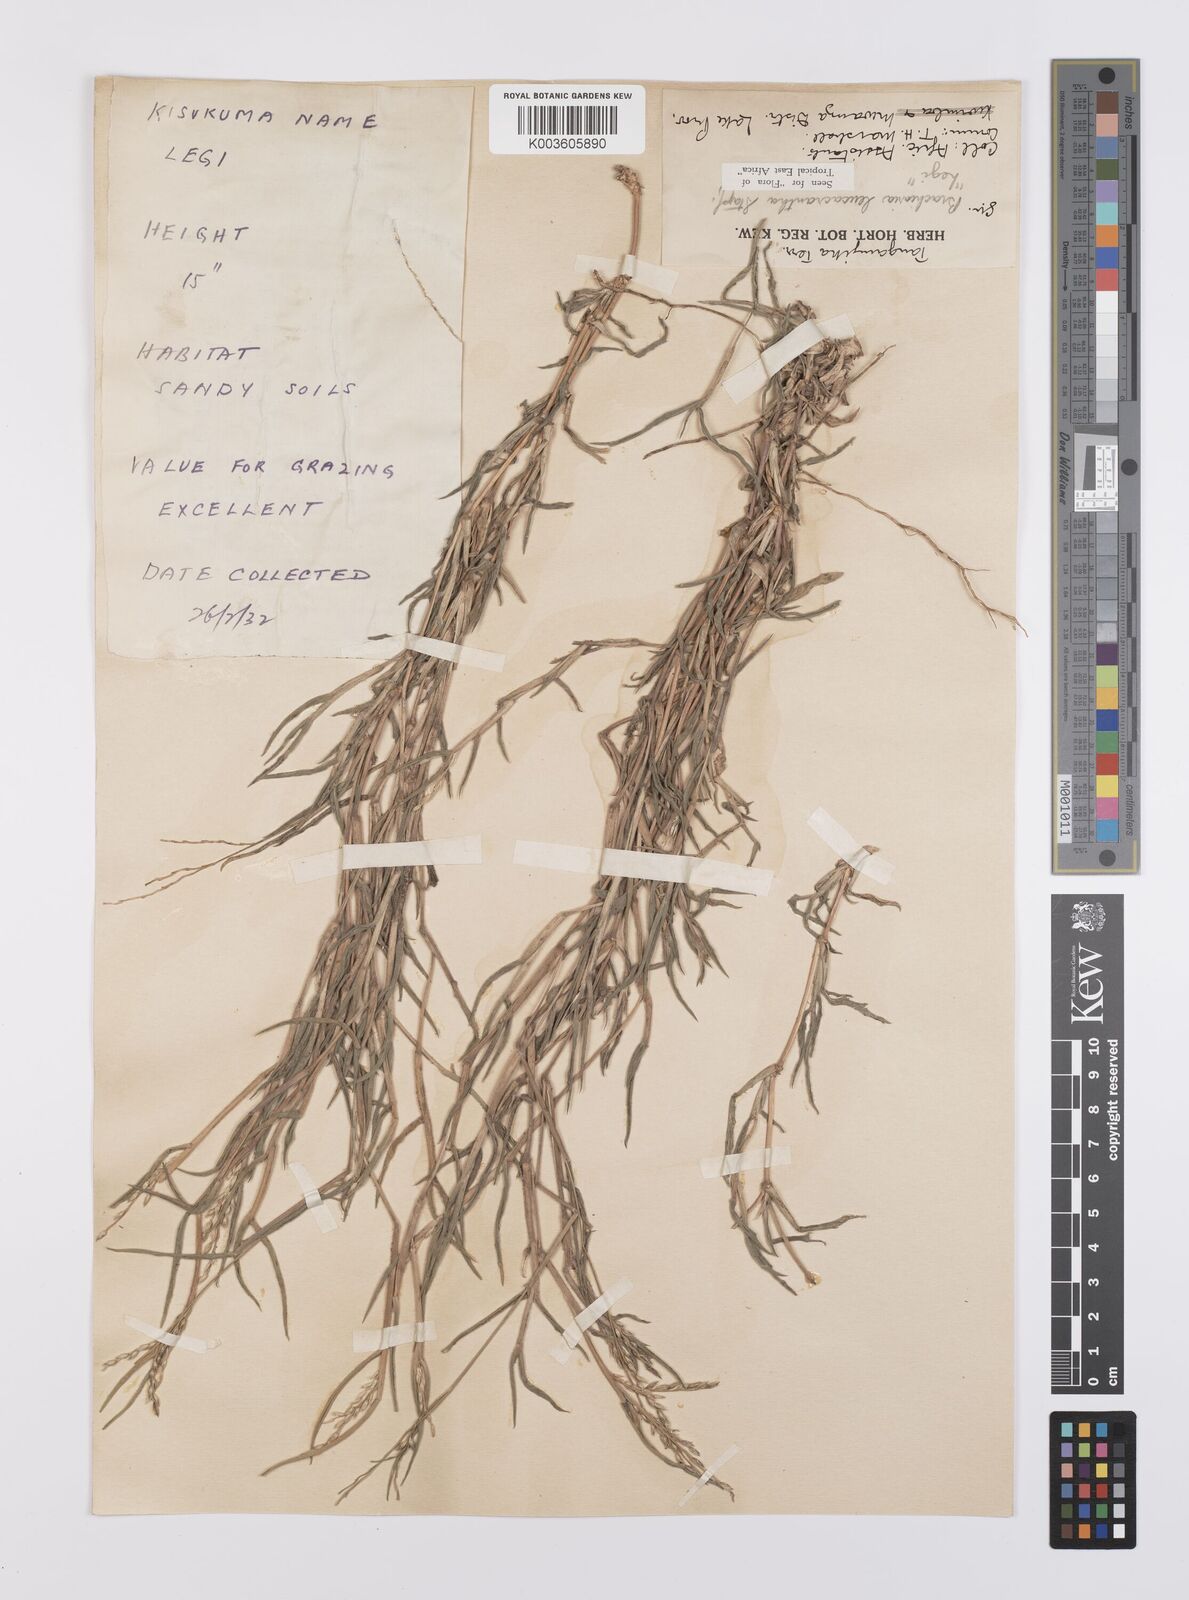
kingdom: Plantae
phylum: Tracheophyta
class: Liliopsida
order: Poales
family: Poaceae
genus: Urochloa
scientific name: Urochloa xantholeuca
